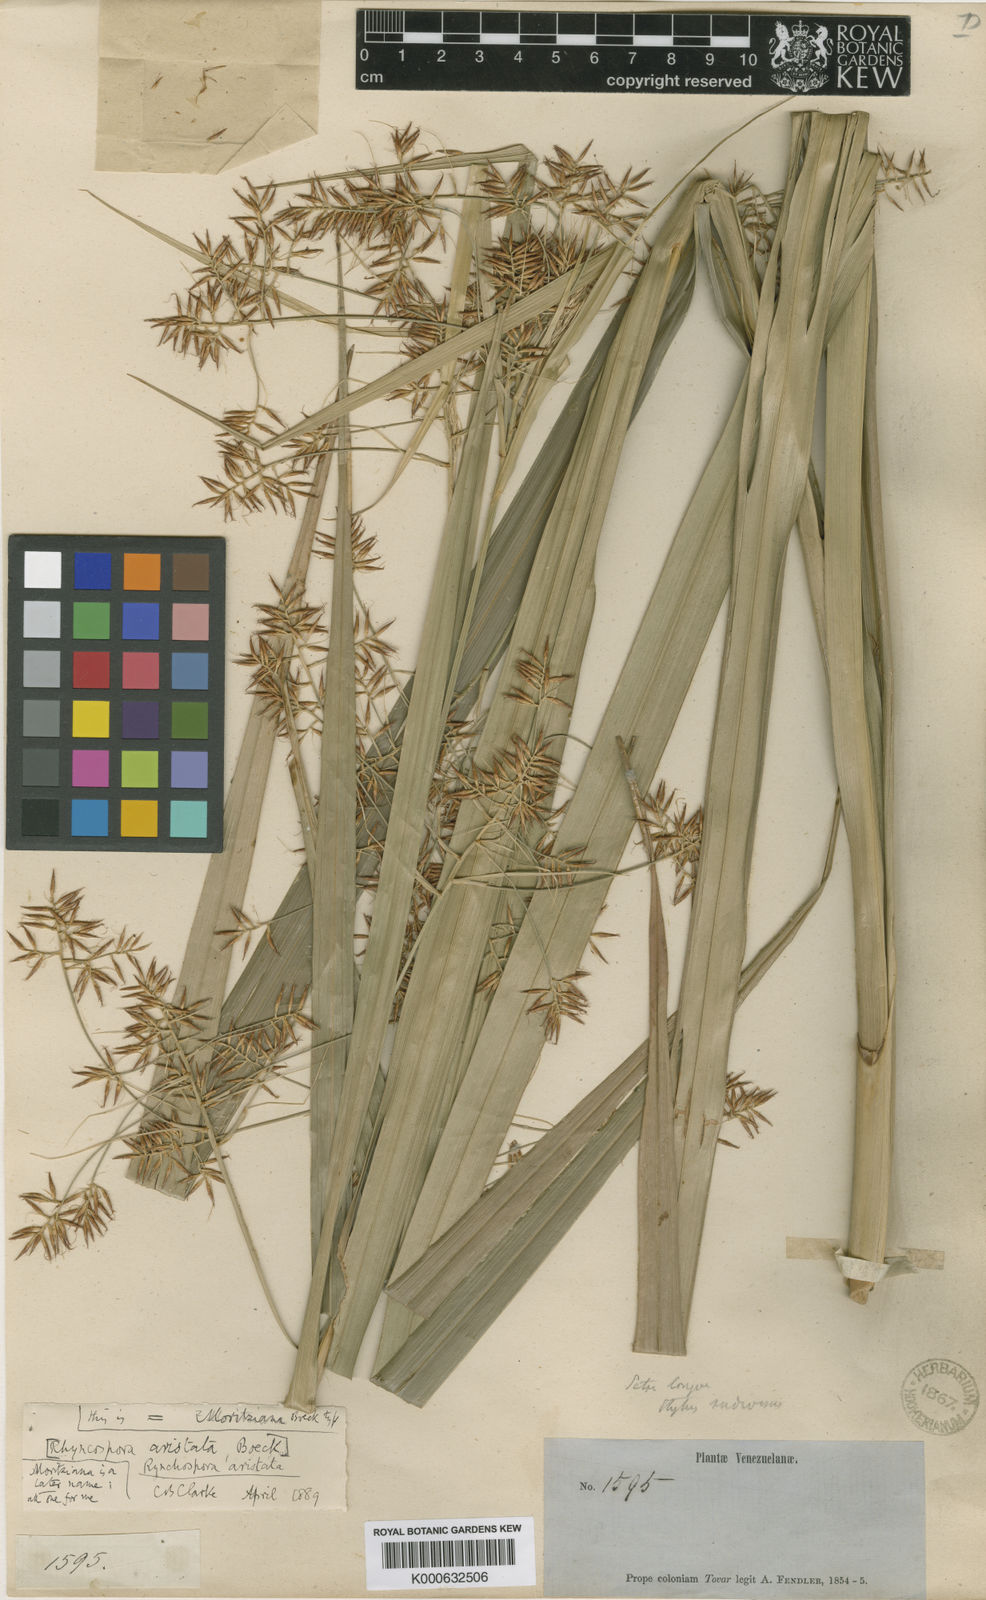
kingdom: Plantae
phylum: Tracheophyta
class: Liliopsida
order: Poales
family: Cyperaceae
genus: Rhynchospora
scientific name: Rhynchospora marisculus
